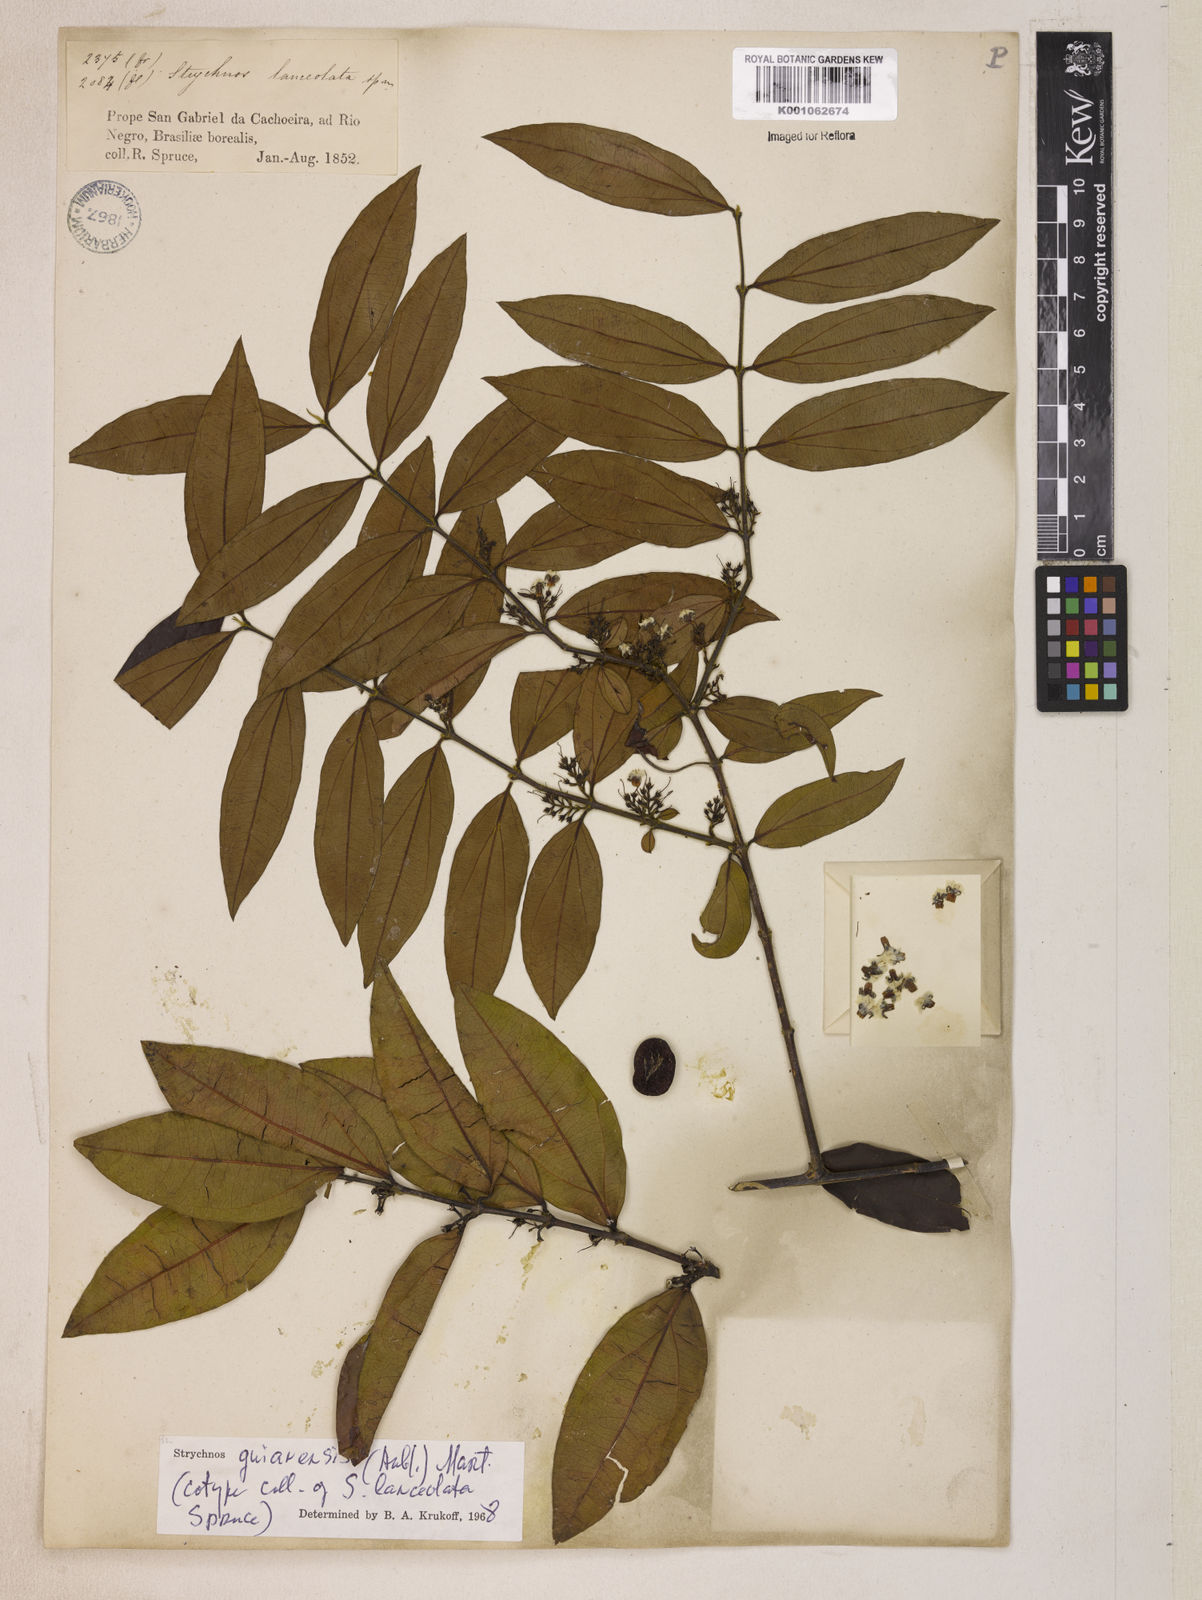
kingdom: Plantae
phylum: Tracheophyta
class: Magnoliopsida
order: Gentianales
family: Loganiaceae
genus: Strychnos
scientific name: Strychnos guianensis
